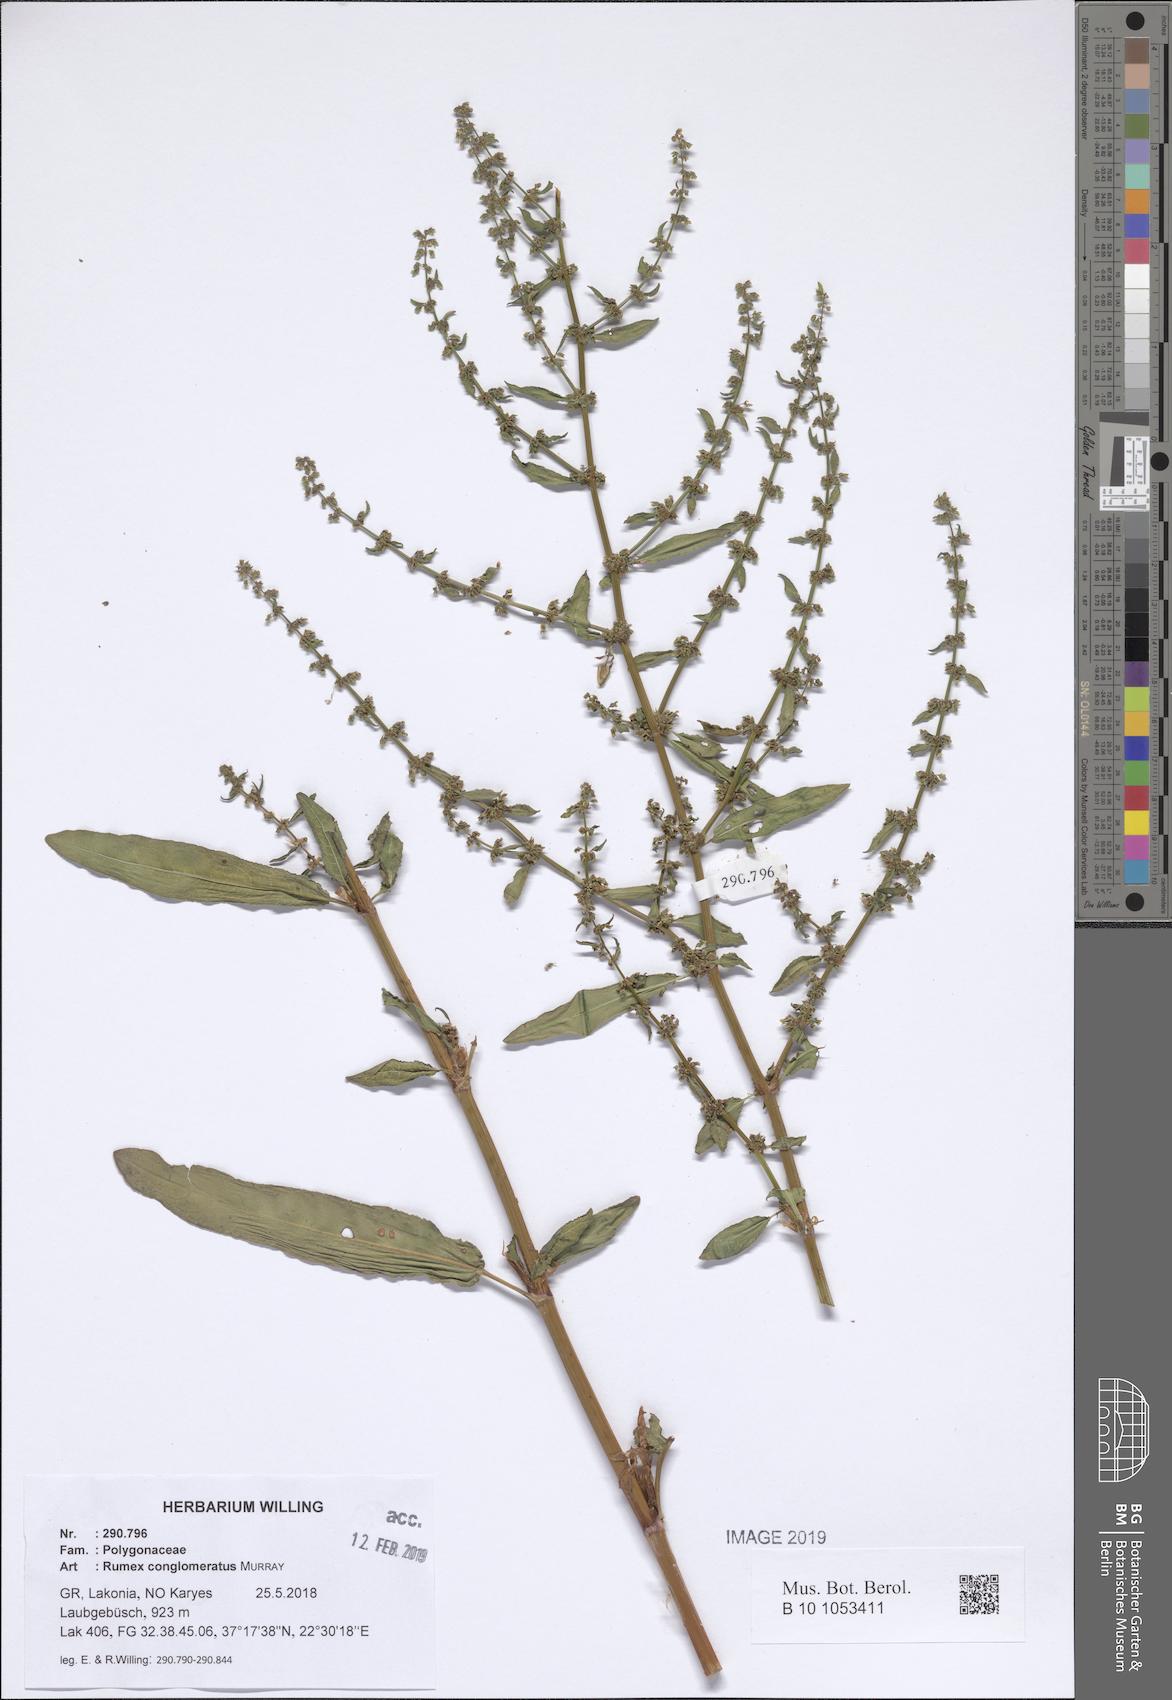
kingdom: Plantae
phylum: Tracheophyta
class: Magnoliopsida
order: Caryophyllales
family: Polygonaceae
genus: Rumex
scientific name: Rumex conglomeratus
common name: Clustered dock
